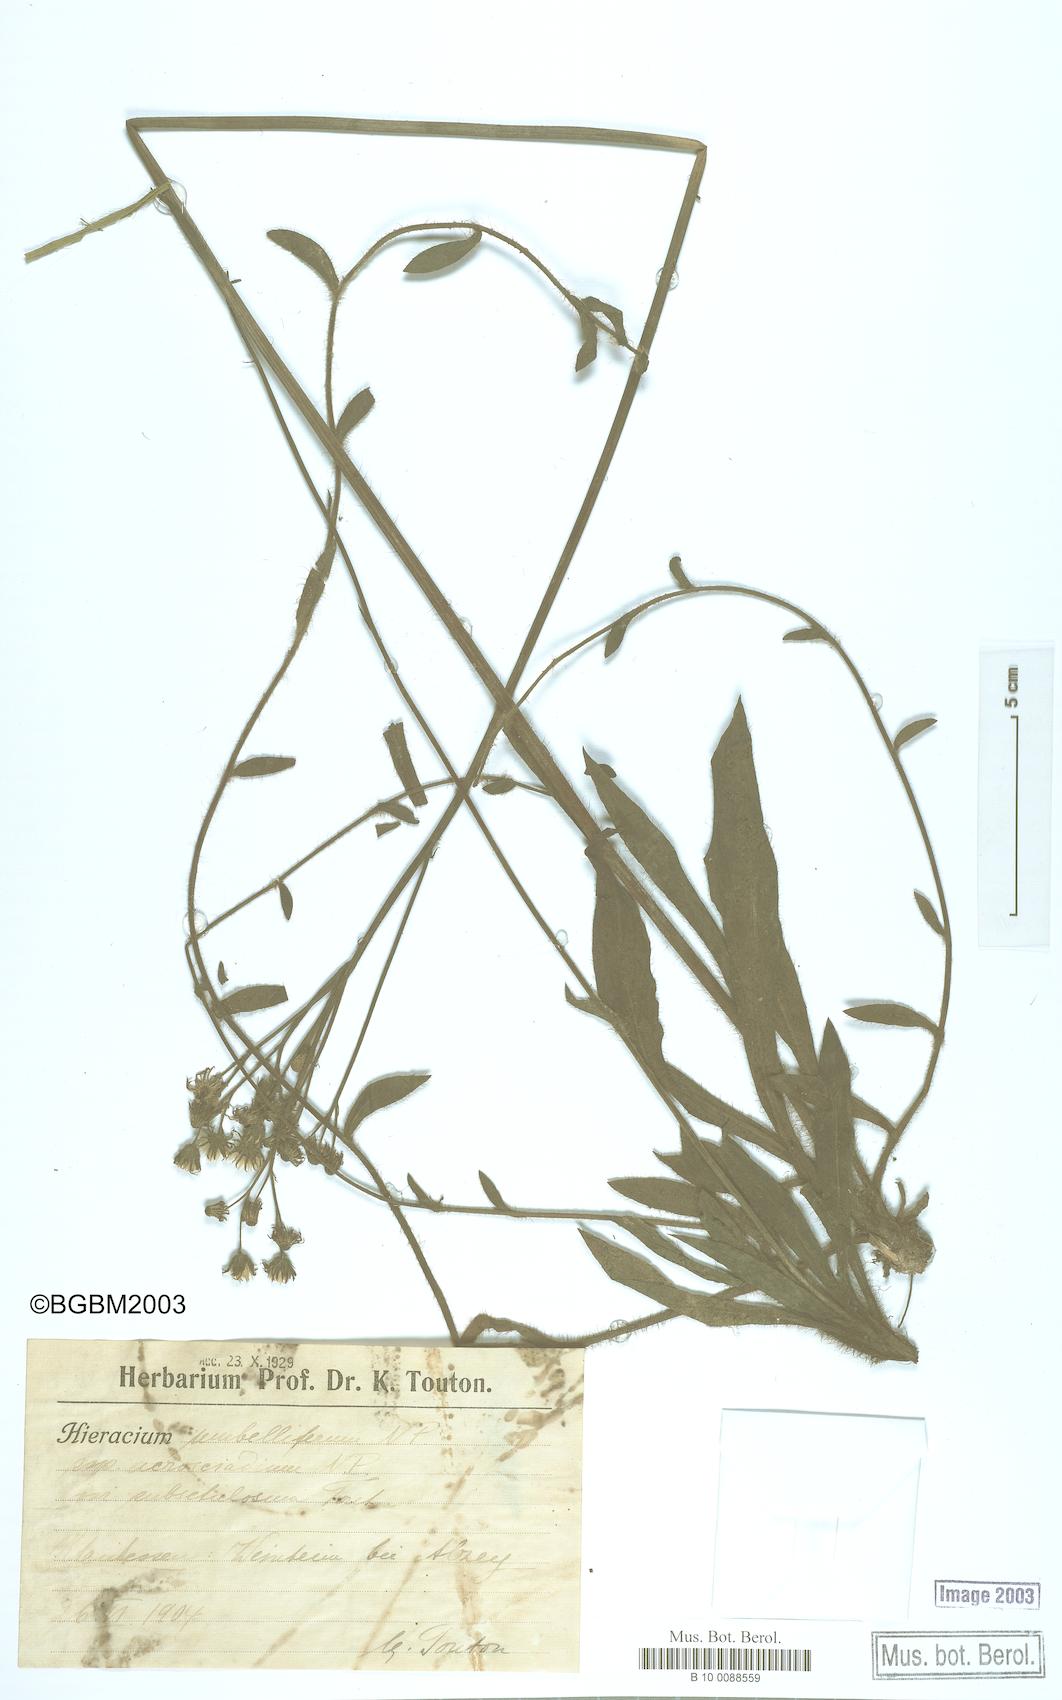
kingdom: Plantae
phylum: Tracheophyta
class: Magnoliopsida
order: Asterales
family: Asteraceae
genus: Hieracium
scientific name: Hieracium umbellatum
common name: Northern hawkweed
